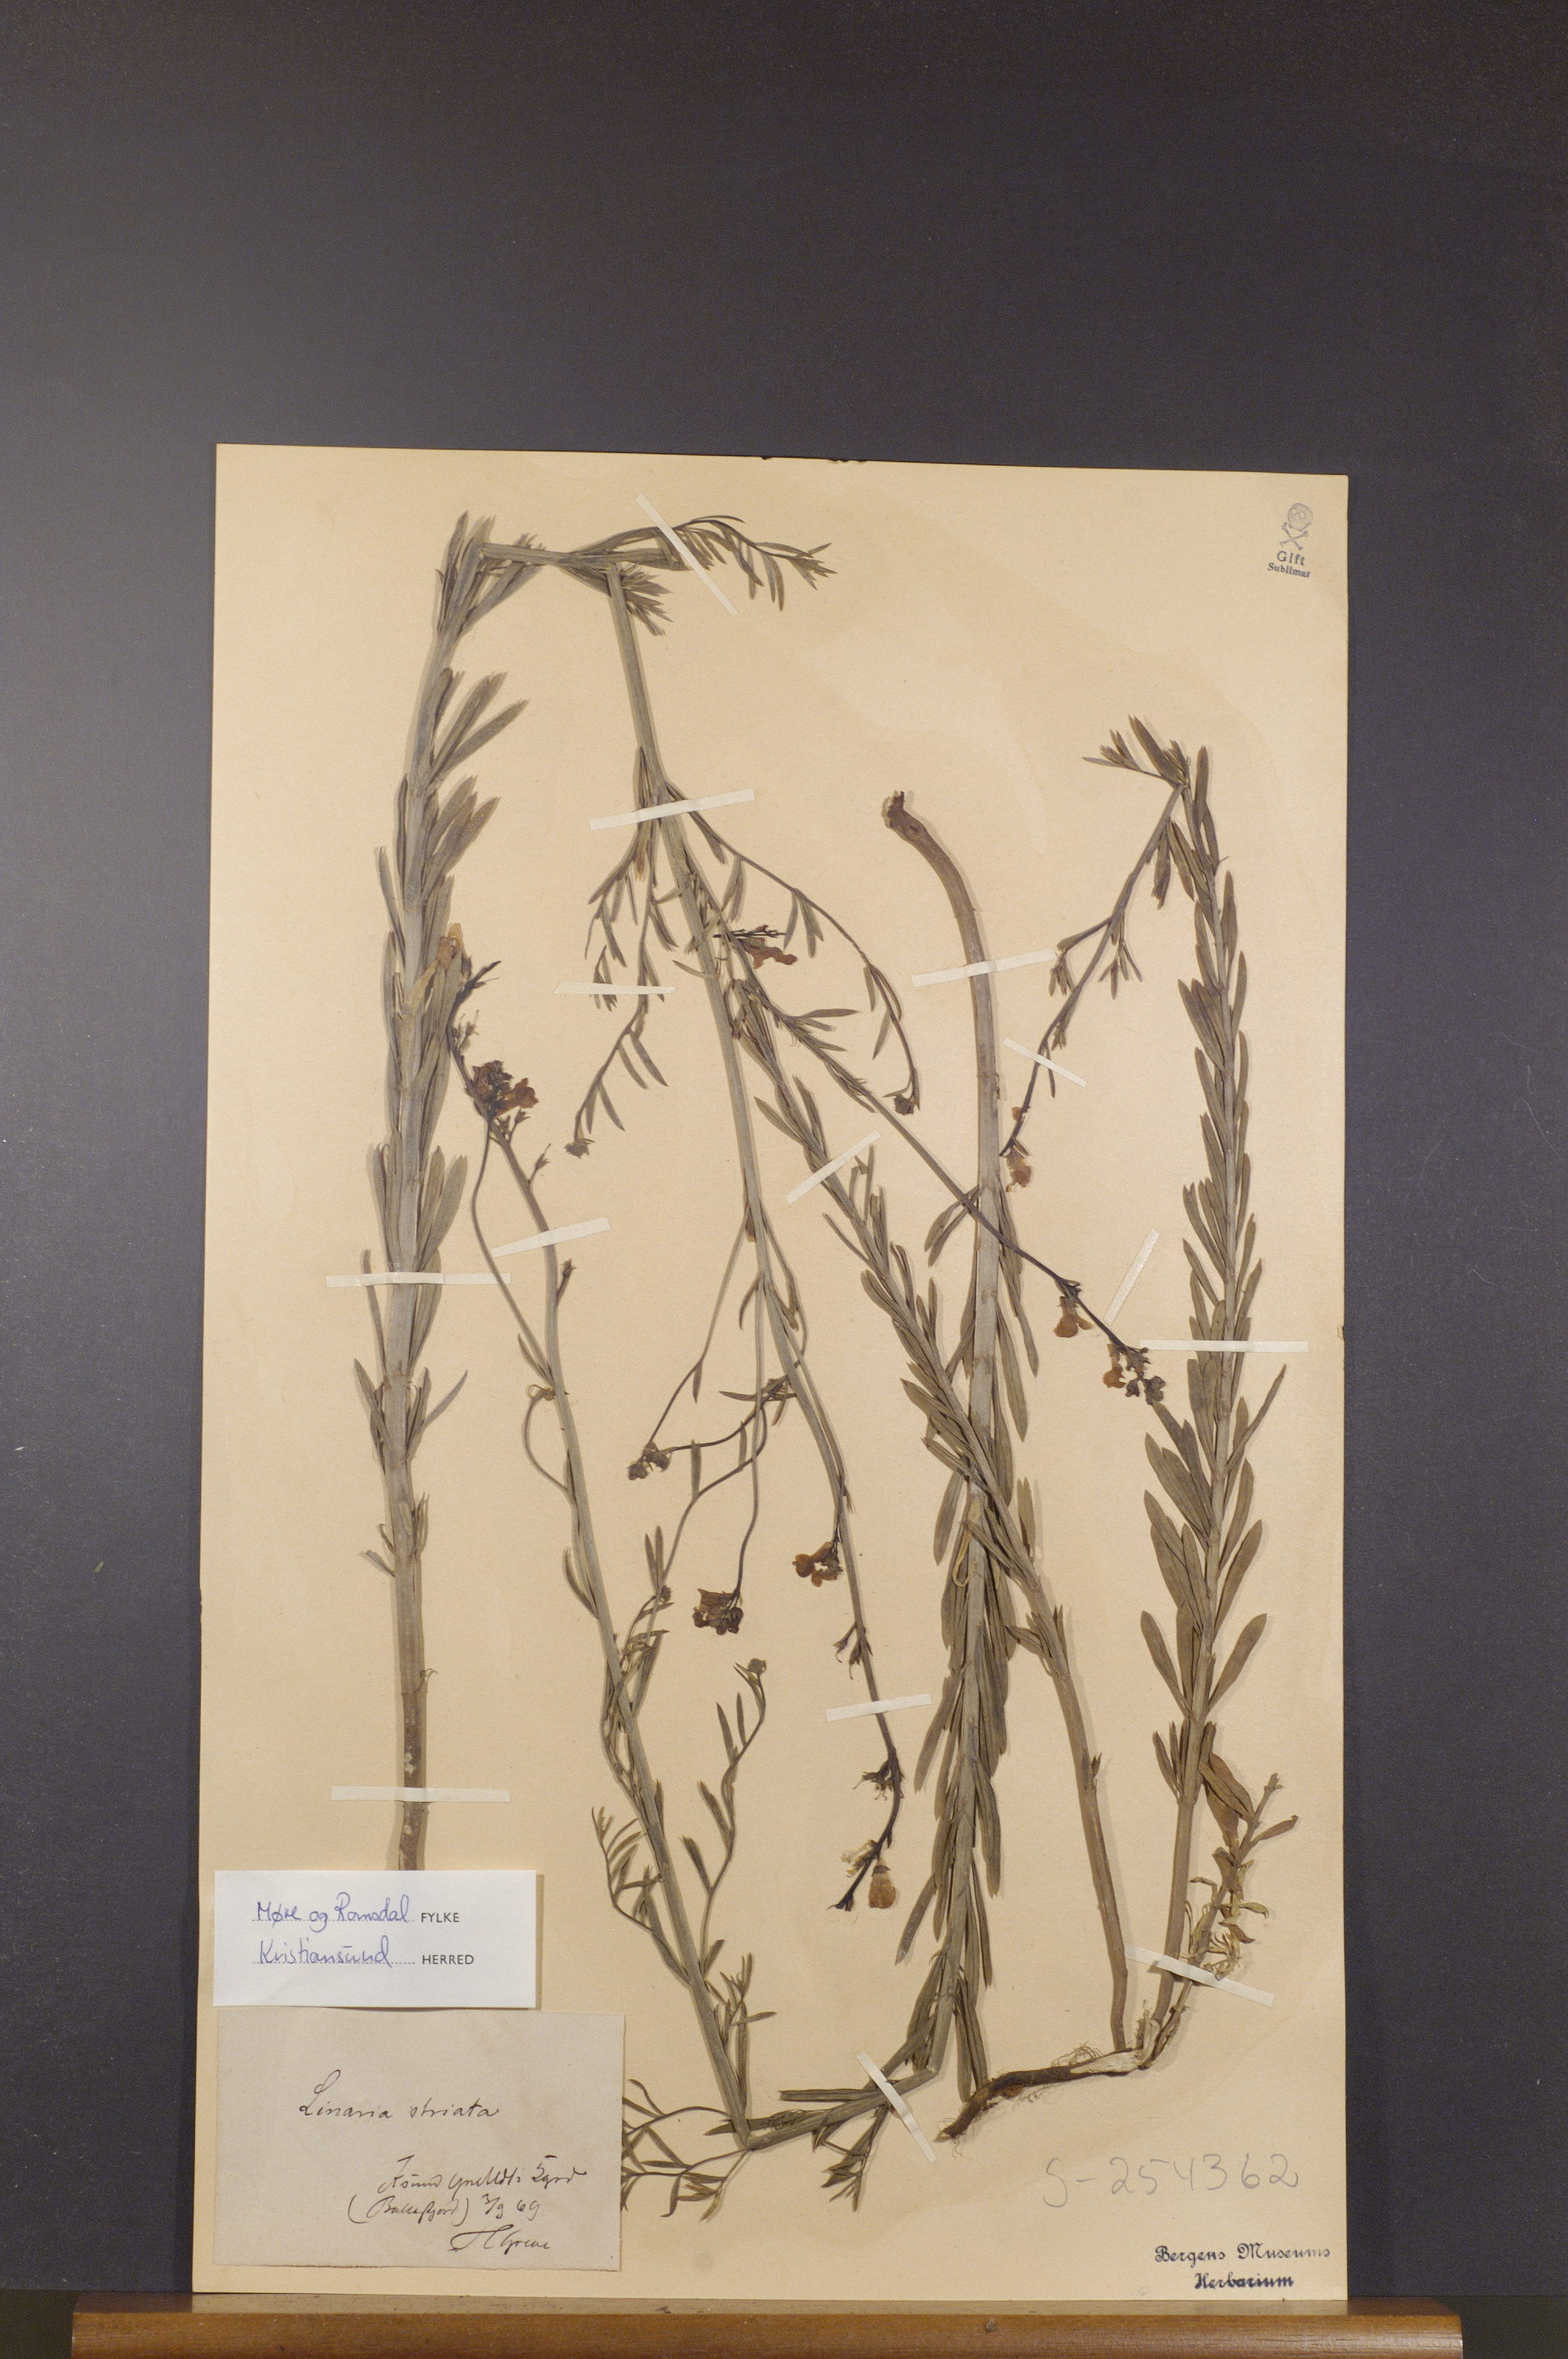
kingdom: Plantae
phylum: Tracheophyta
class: Magnoliopsida
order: Lamiales
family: Plantaginaceae
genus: Linaria
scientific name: Linaria repens
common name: Pale toadflax
